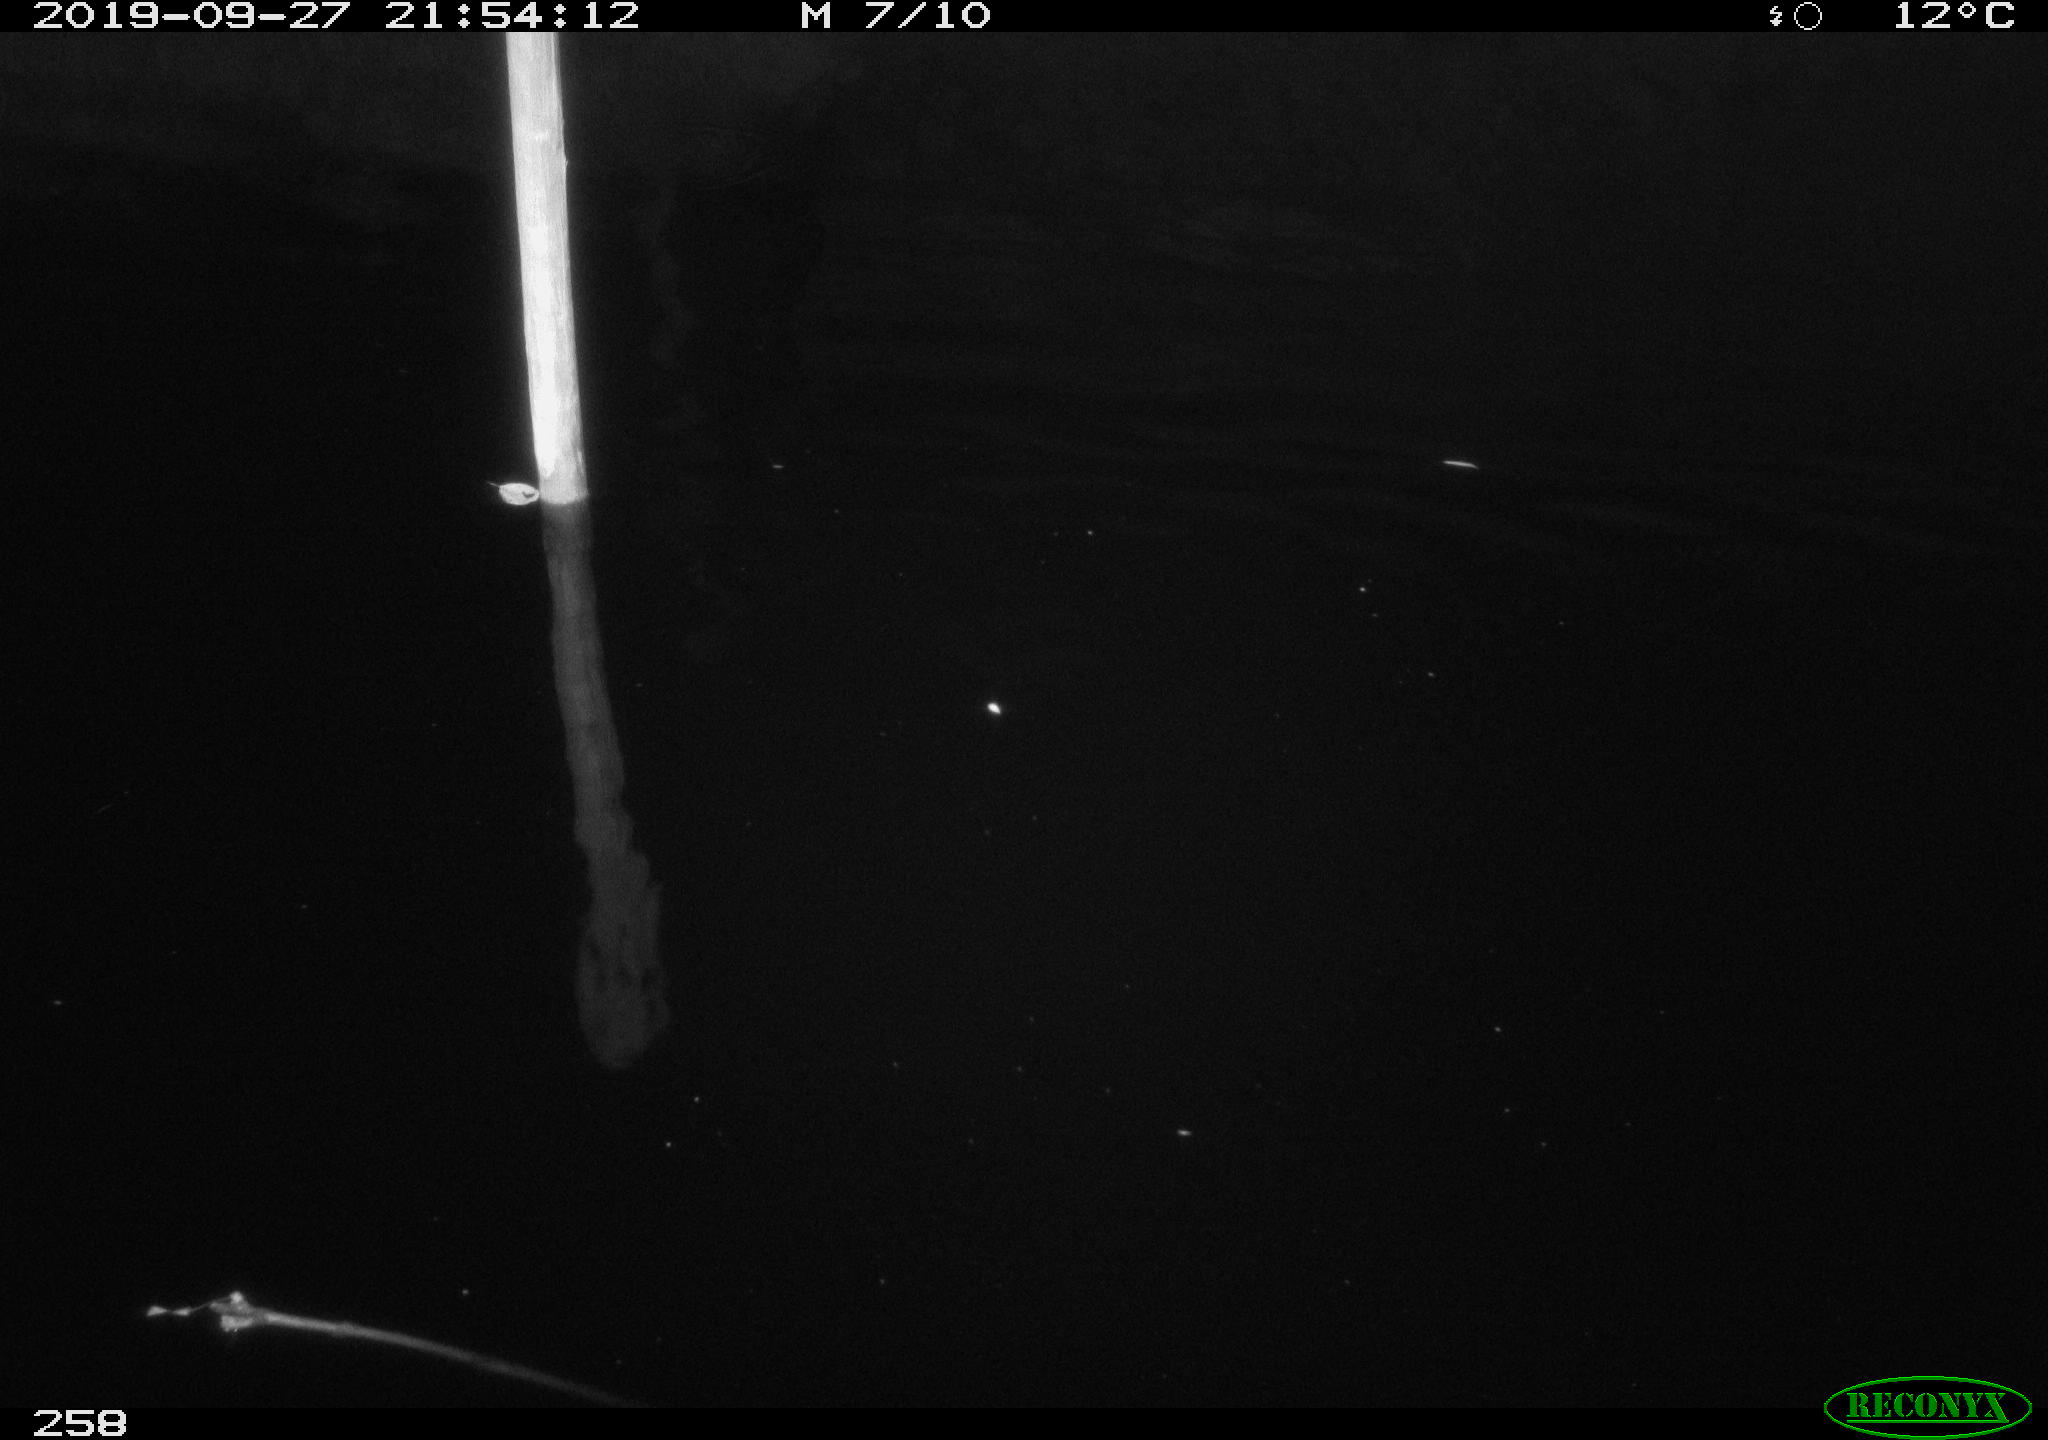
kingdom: Animalia
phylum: Chordata
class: Aves
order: Anseriformes
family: Anatidae
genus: Anas
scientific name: Anas platyrhynchos
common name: Mallard
